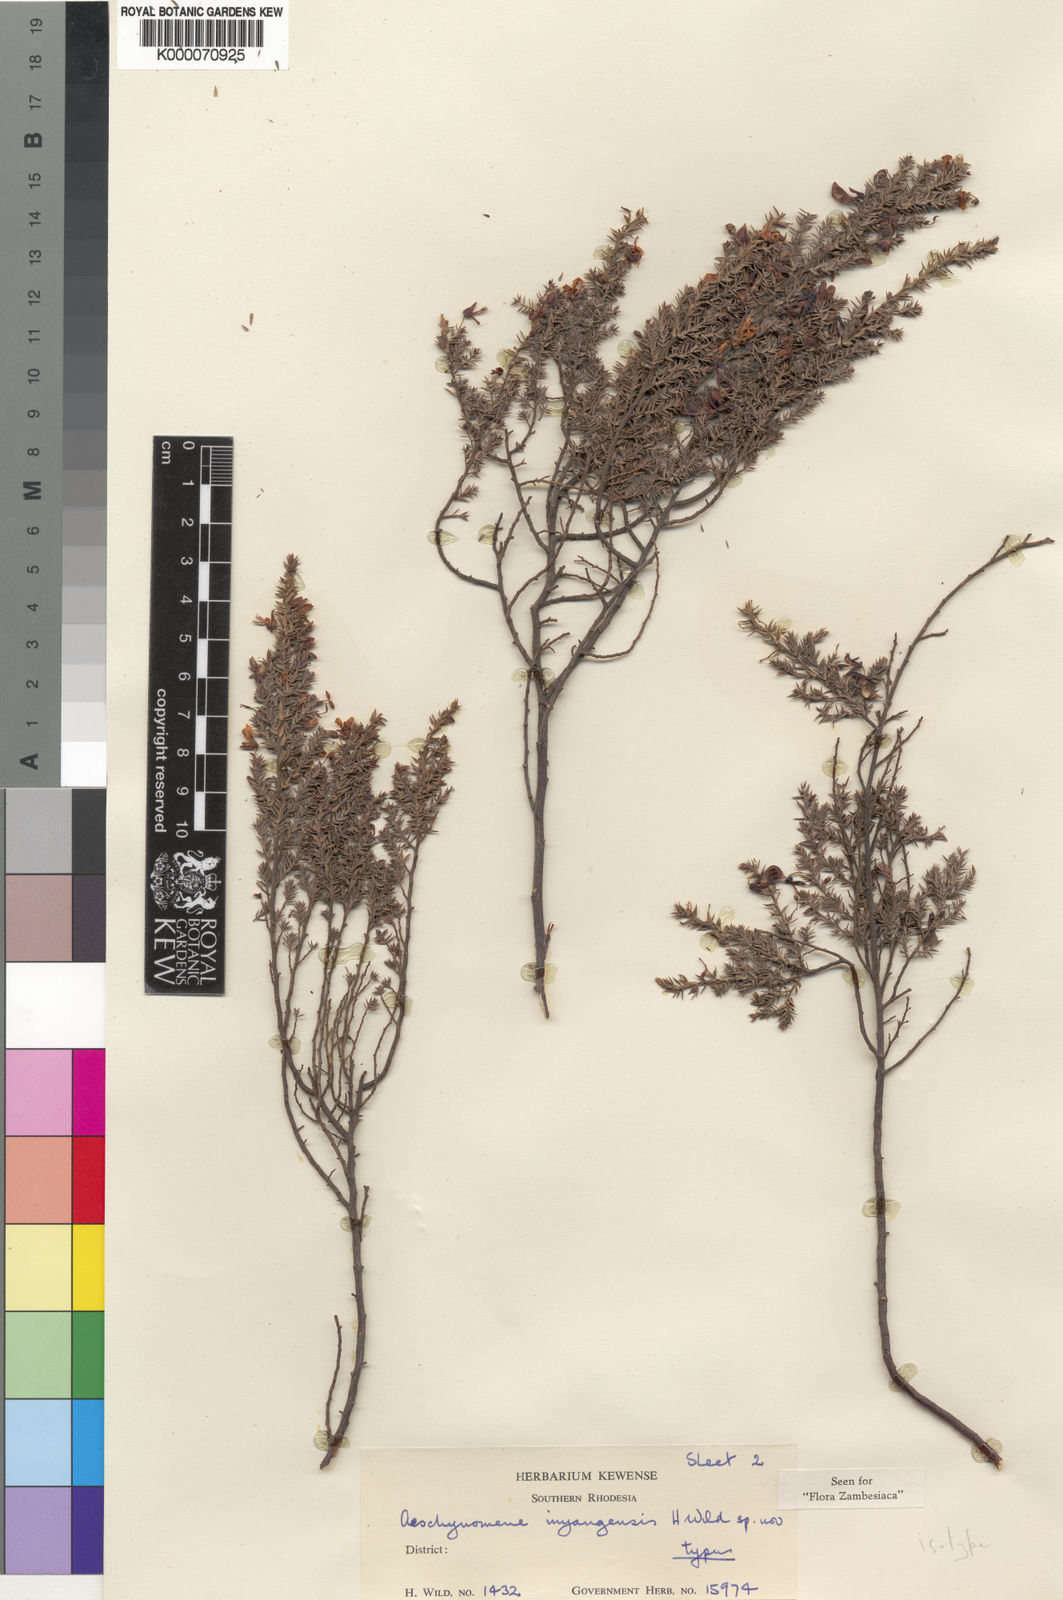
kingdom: Plantae
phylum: Tracheophyta
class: Magnoliopsida
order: Fabales
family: Fabaceae
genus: Aeschynomene
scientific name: Aeschynomene inyangensis
